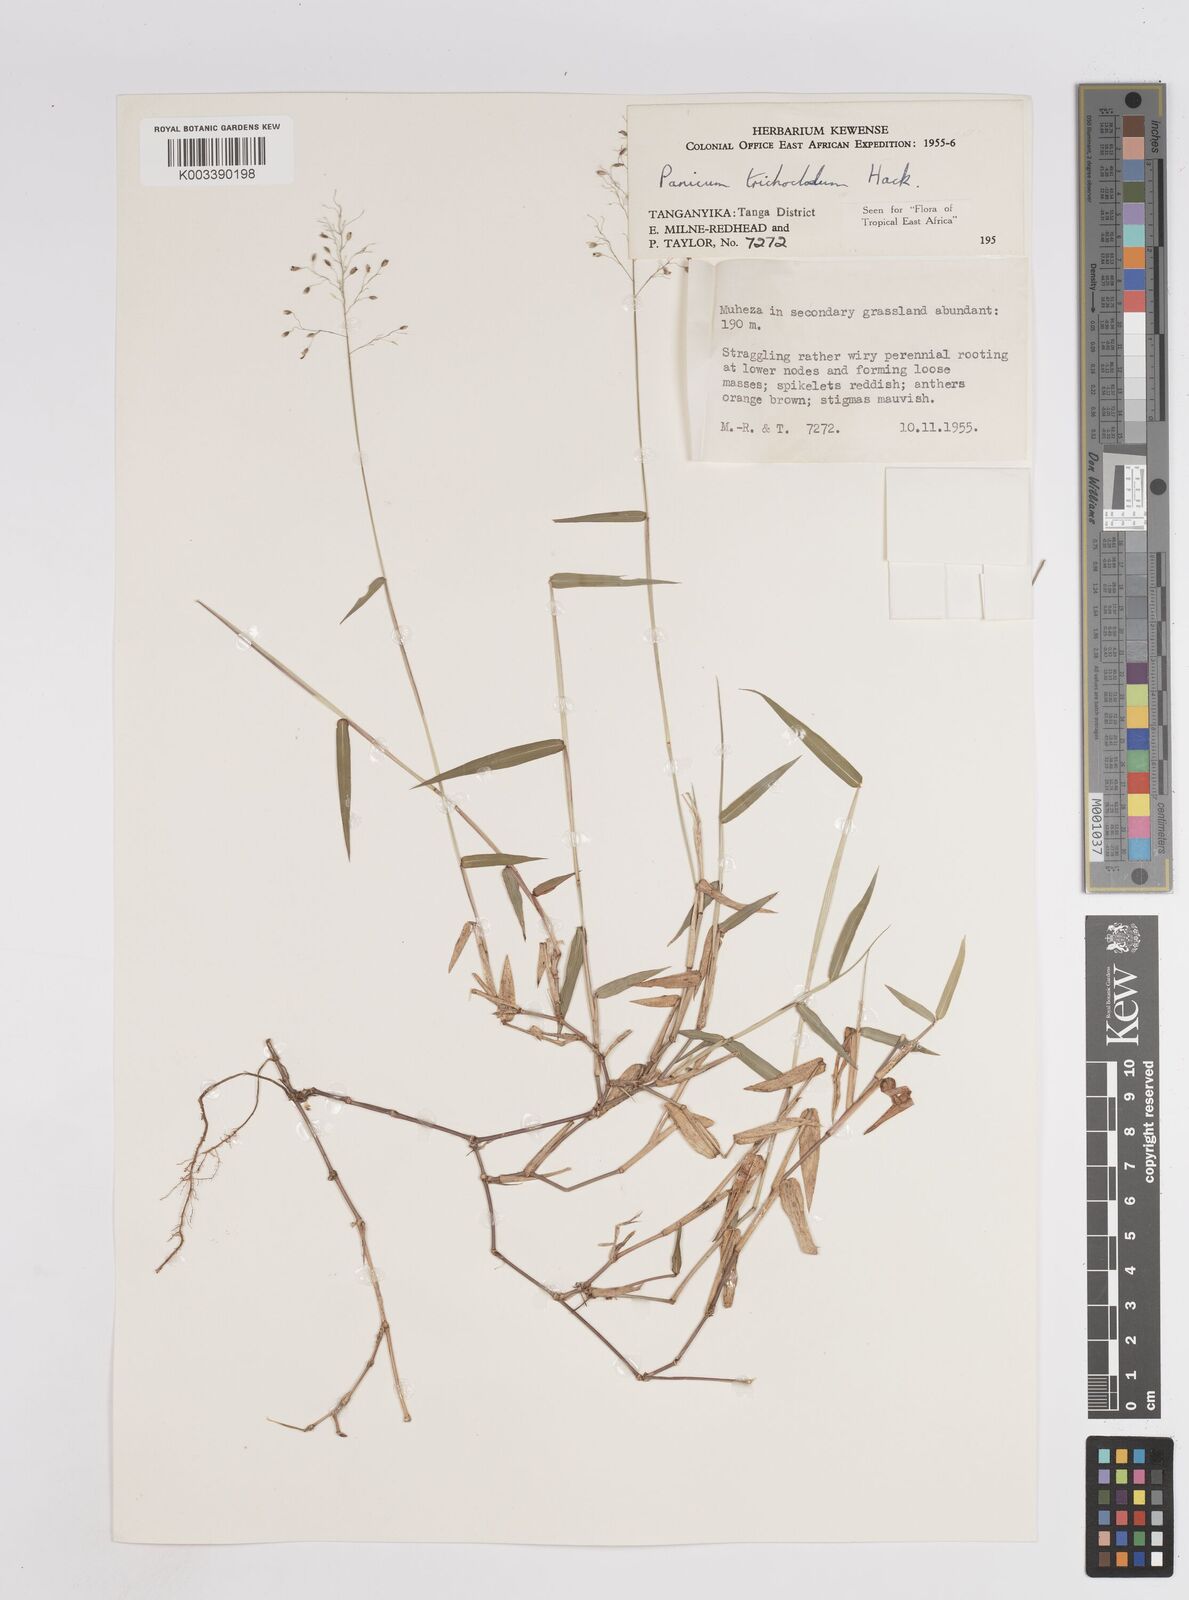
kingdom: Plantae
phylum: Tracheophyta
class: Liliopsida
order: Poales
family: Poaceae
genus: Panicum
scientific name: Panicum trichocladum
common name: Donkey grass
